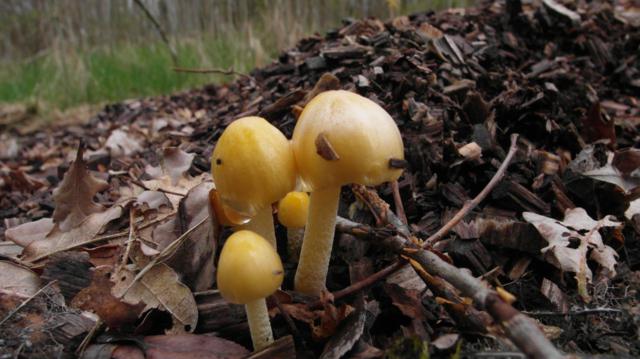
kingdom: Fungi
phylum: Basidiomycota
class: Agaricomycetes
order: Agaricales
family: Bolbitiaceae
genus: Bolbitius
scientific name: Bolbitius titubans
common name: almindelig gulhat
